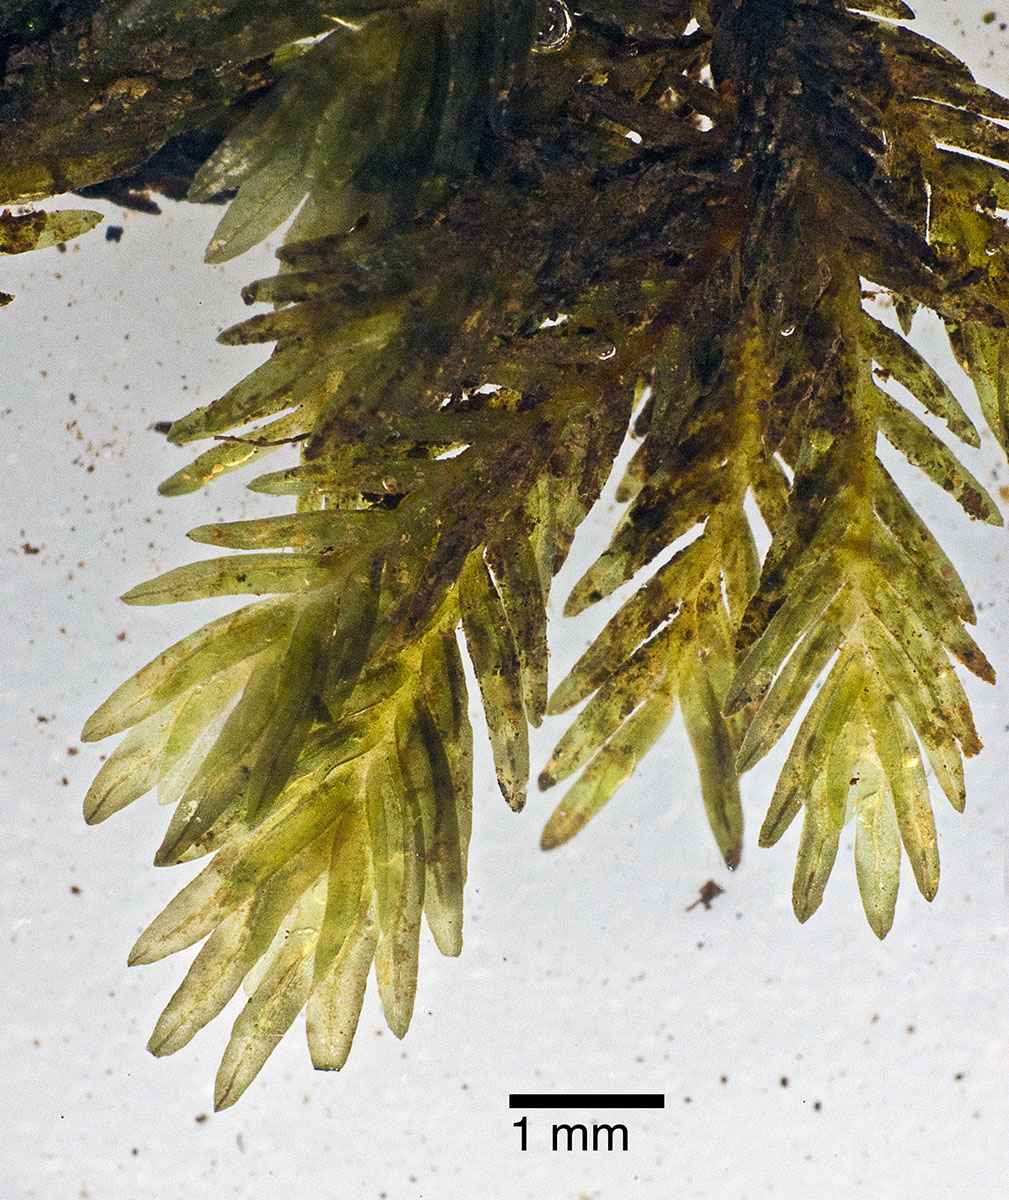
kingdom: Plantae
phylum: Bryophyta
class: Bryopsida
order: Dicranales
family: Fissidentaceae
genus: Fissidens
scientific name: Fissidens integerrimus
